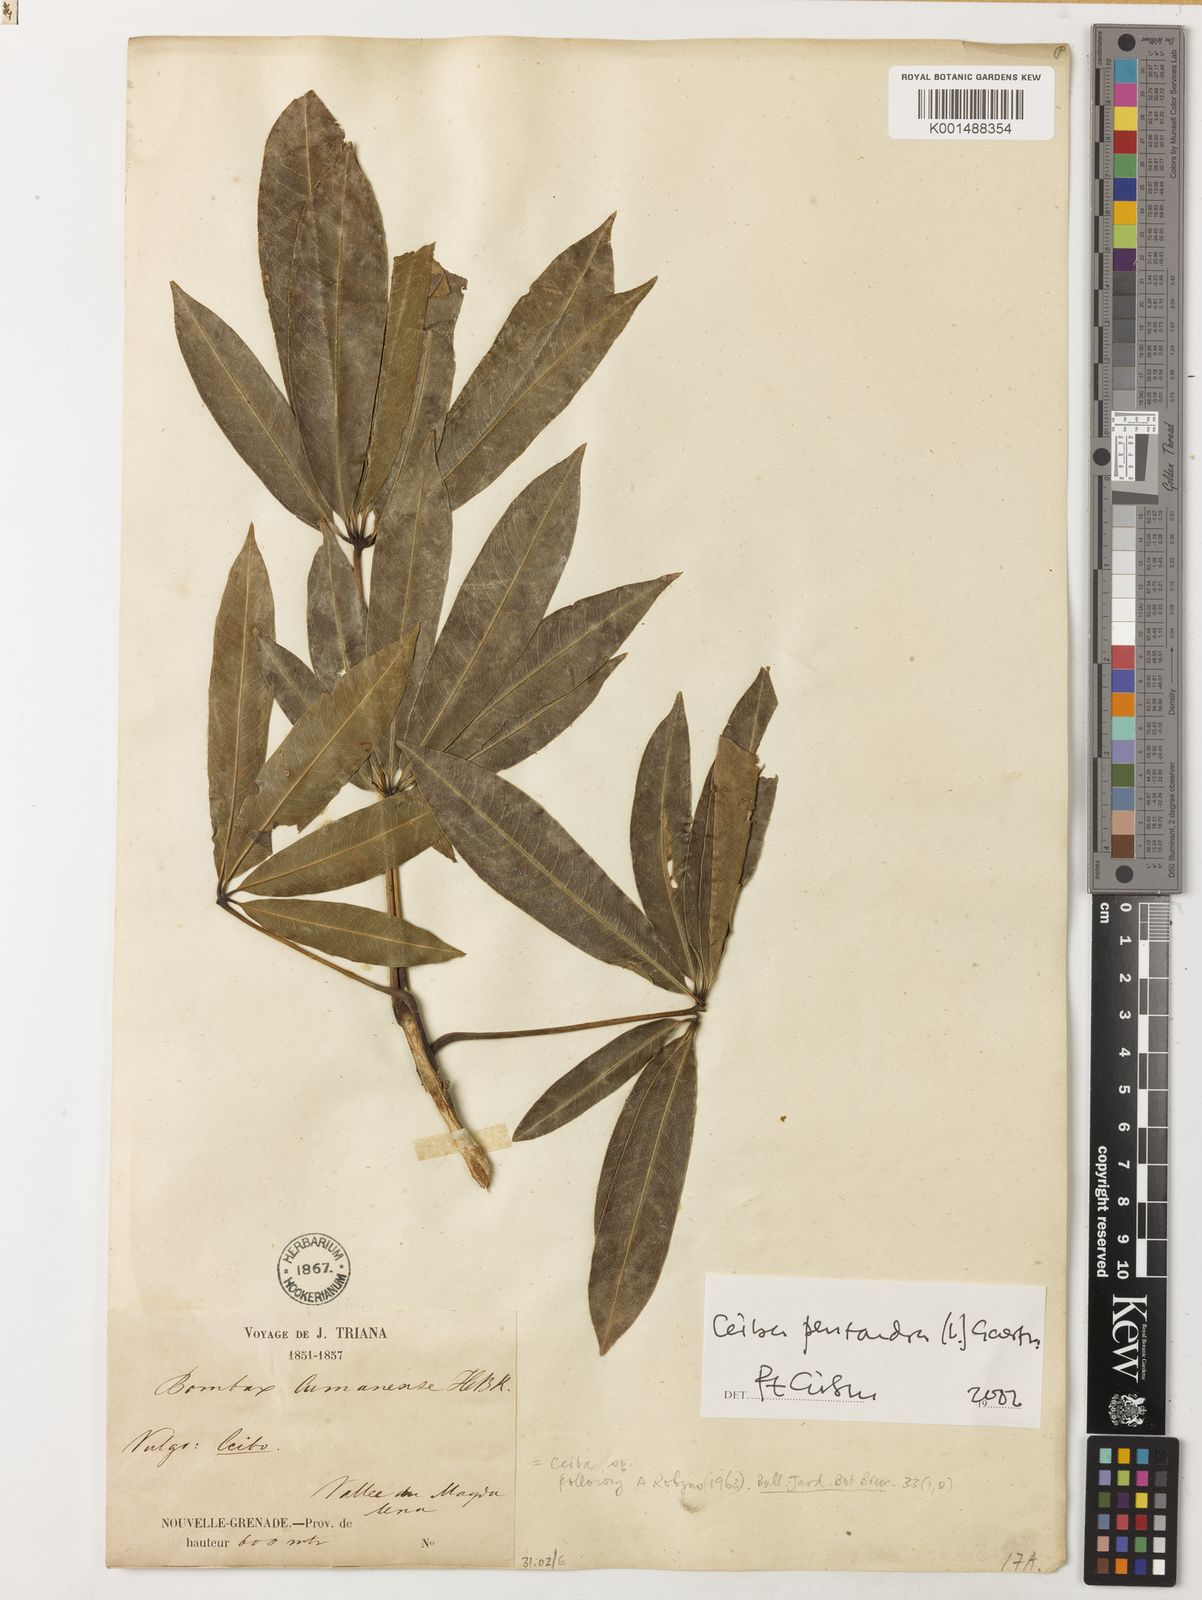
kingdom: Plantae
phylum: Tracheophyta
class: Magnoliopsida
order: Malvales
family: Malvaceae
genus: Ceiba
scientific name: Ceiba pentandra
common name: Kapok
